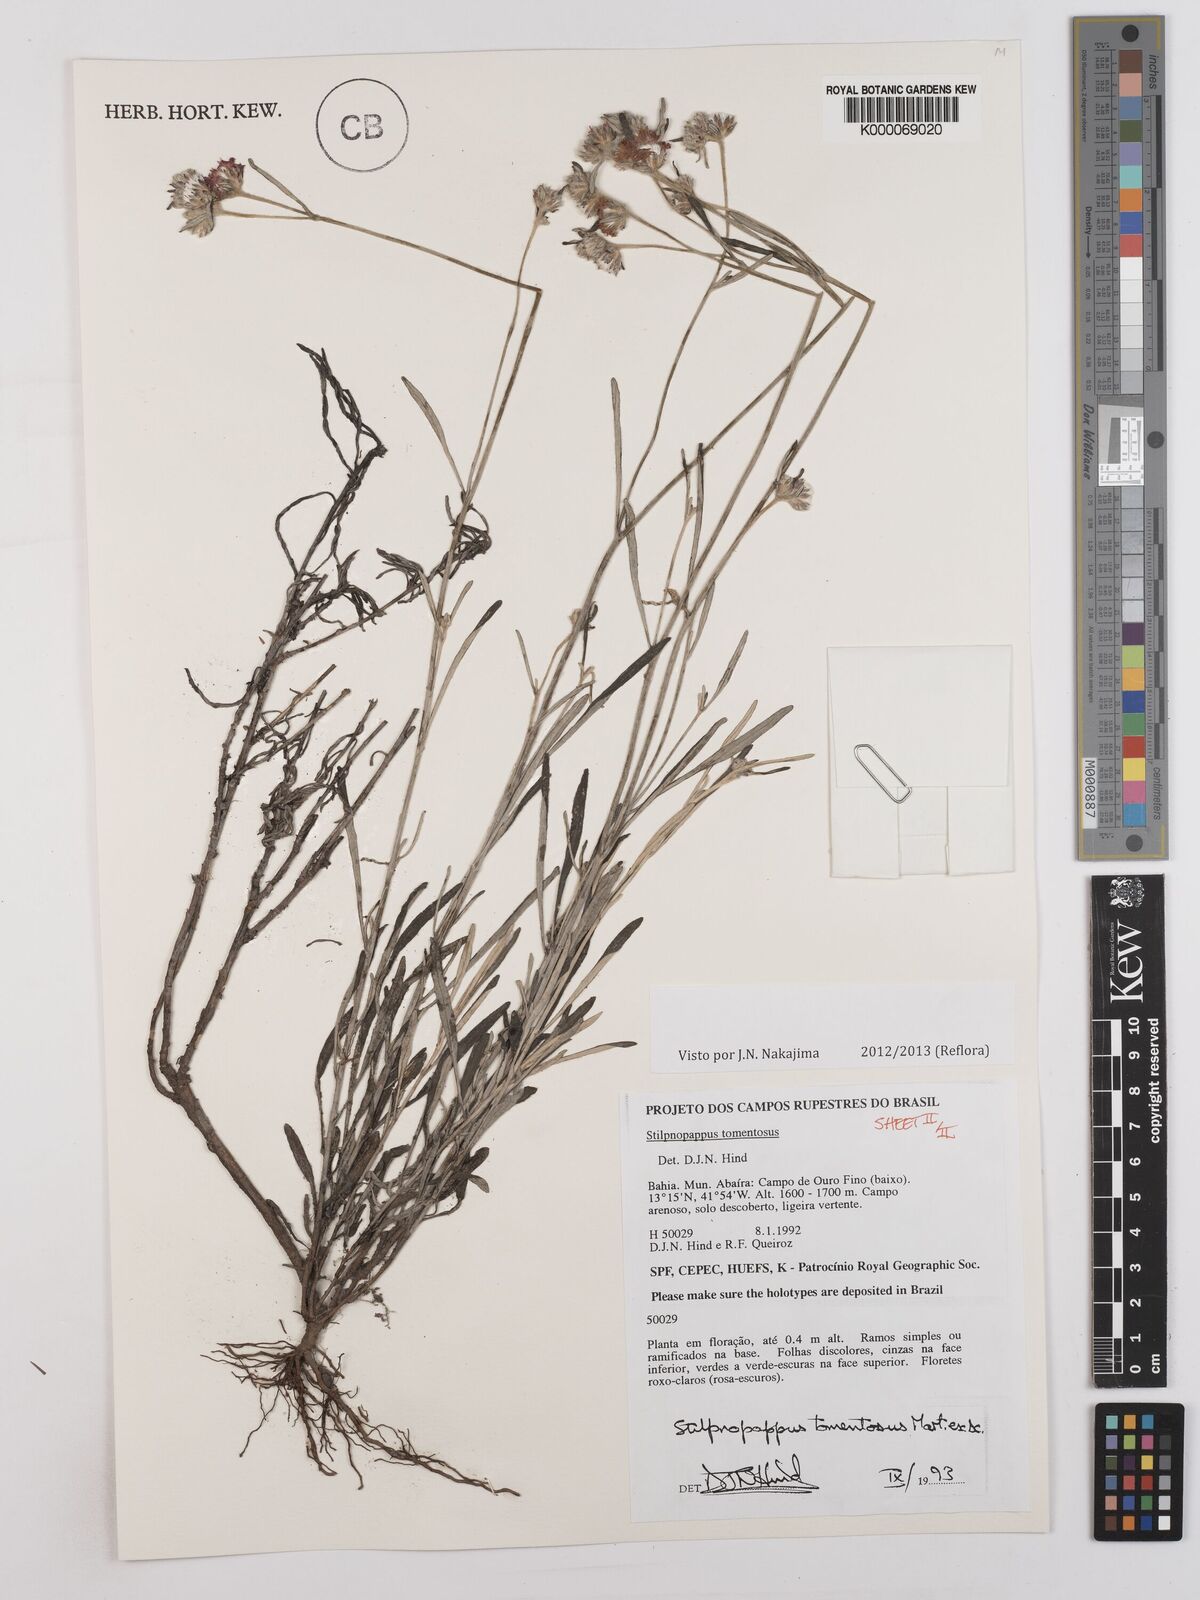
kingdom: Plantae
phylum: Tracheophyta
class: Magnoliopsida
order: Asterales
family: Asteraceae
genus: Stilpnopappus
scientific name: Stilpnopappus tomentosus
